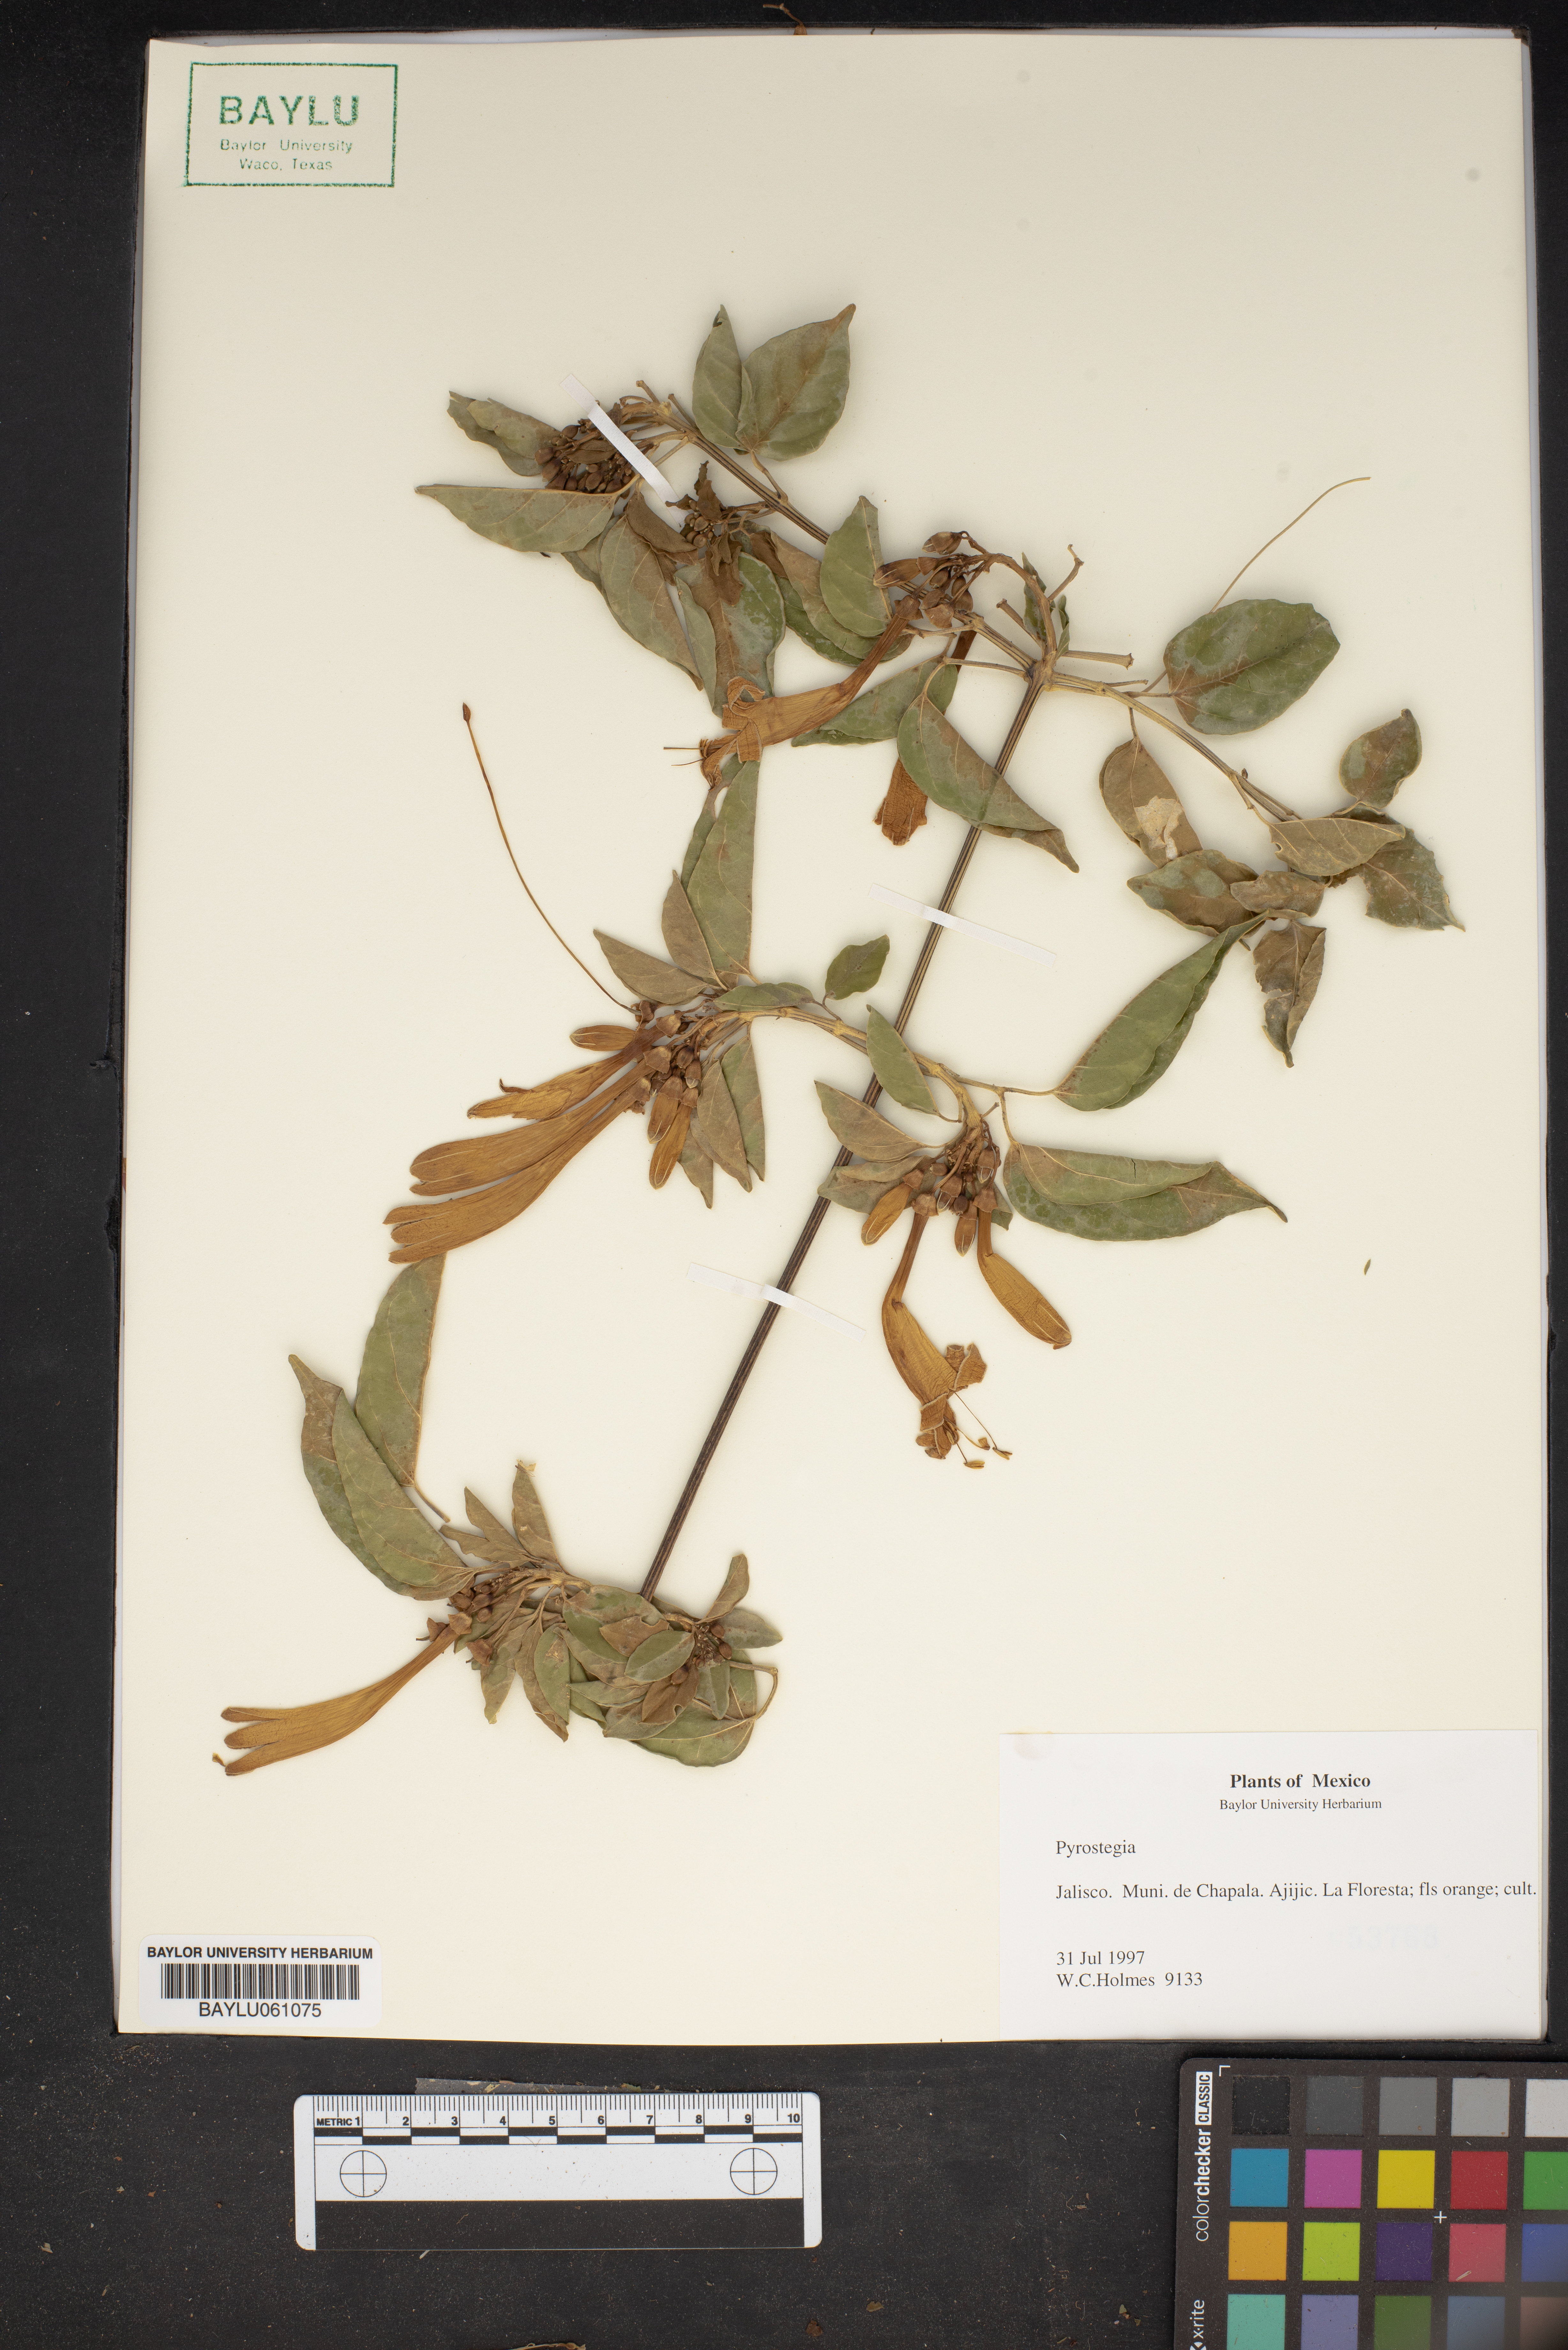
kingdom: Plantae
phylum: Tracheophyta
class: Magnoliopsida
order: Lamiales
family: Bignoniaceae
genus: Pyrostegia
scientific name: Pyrostegia
